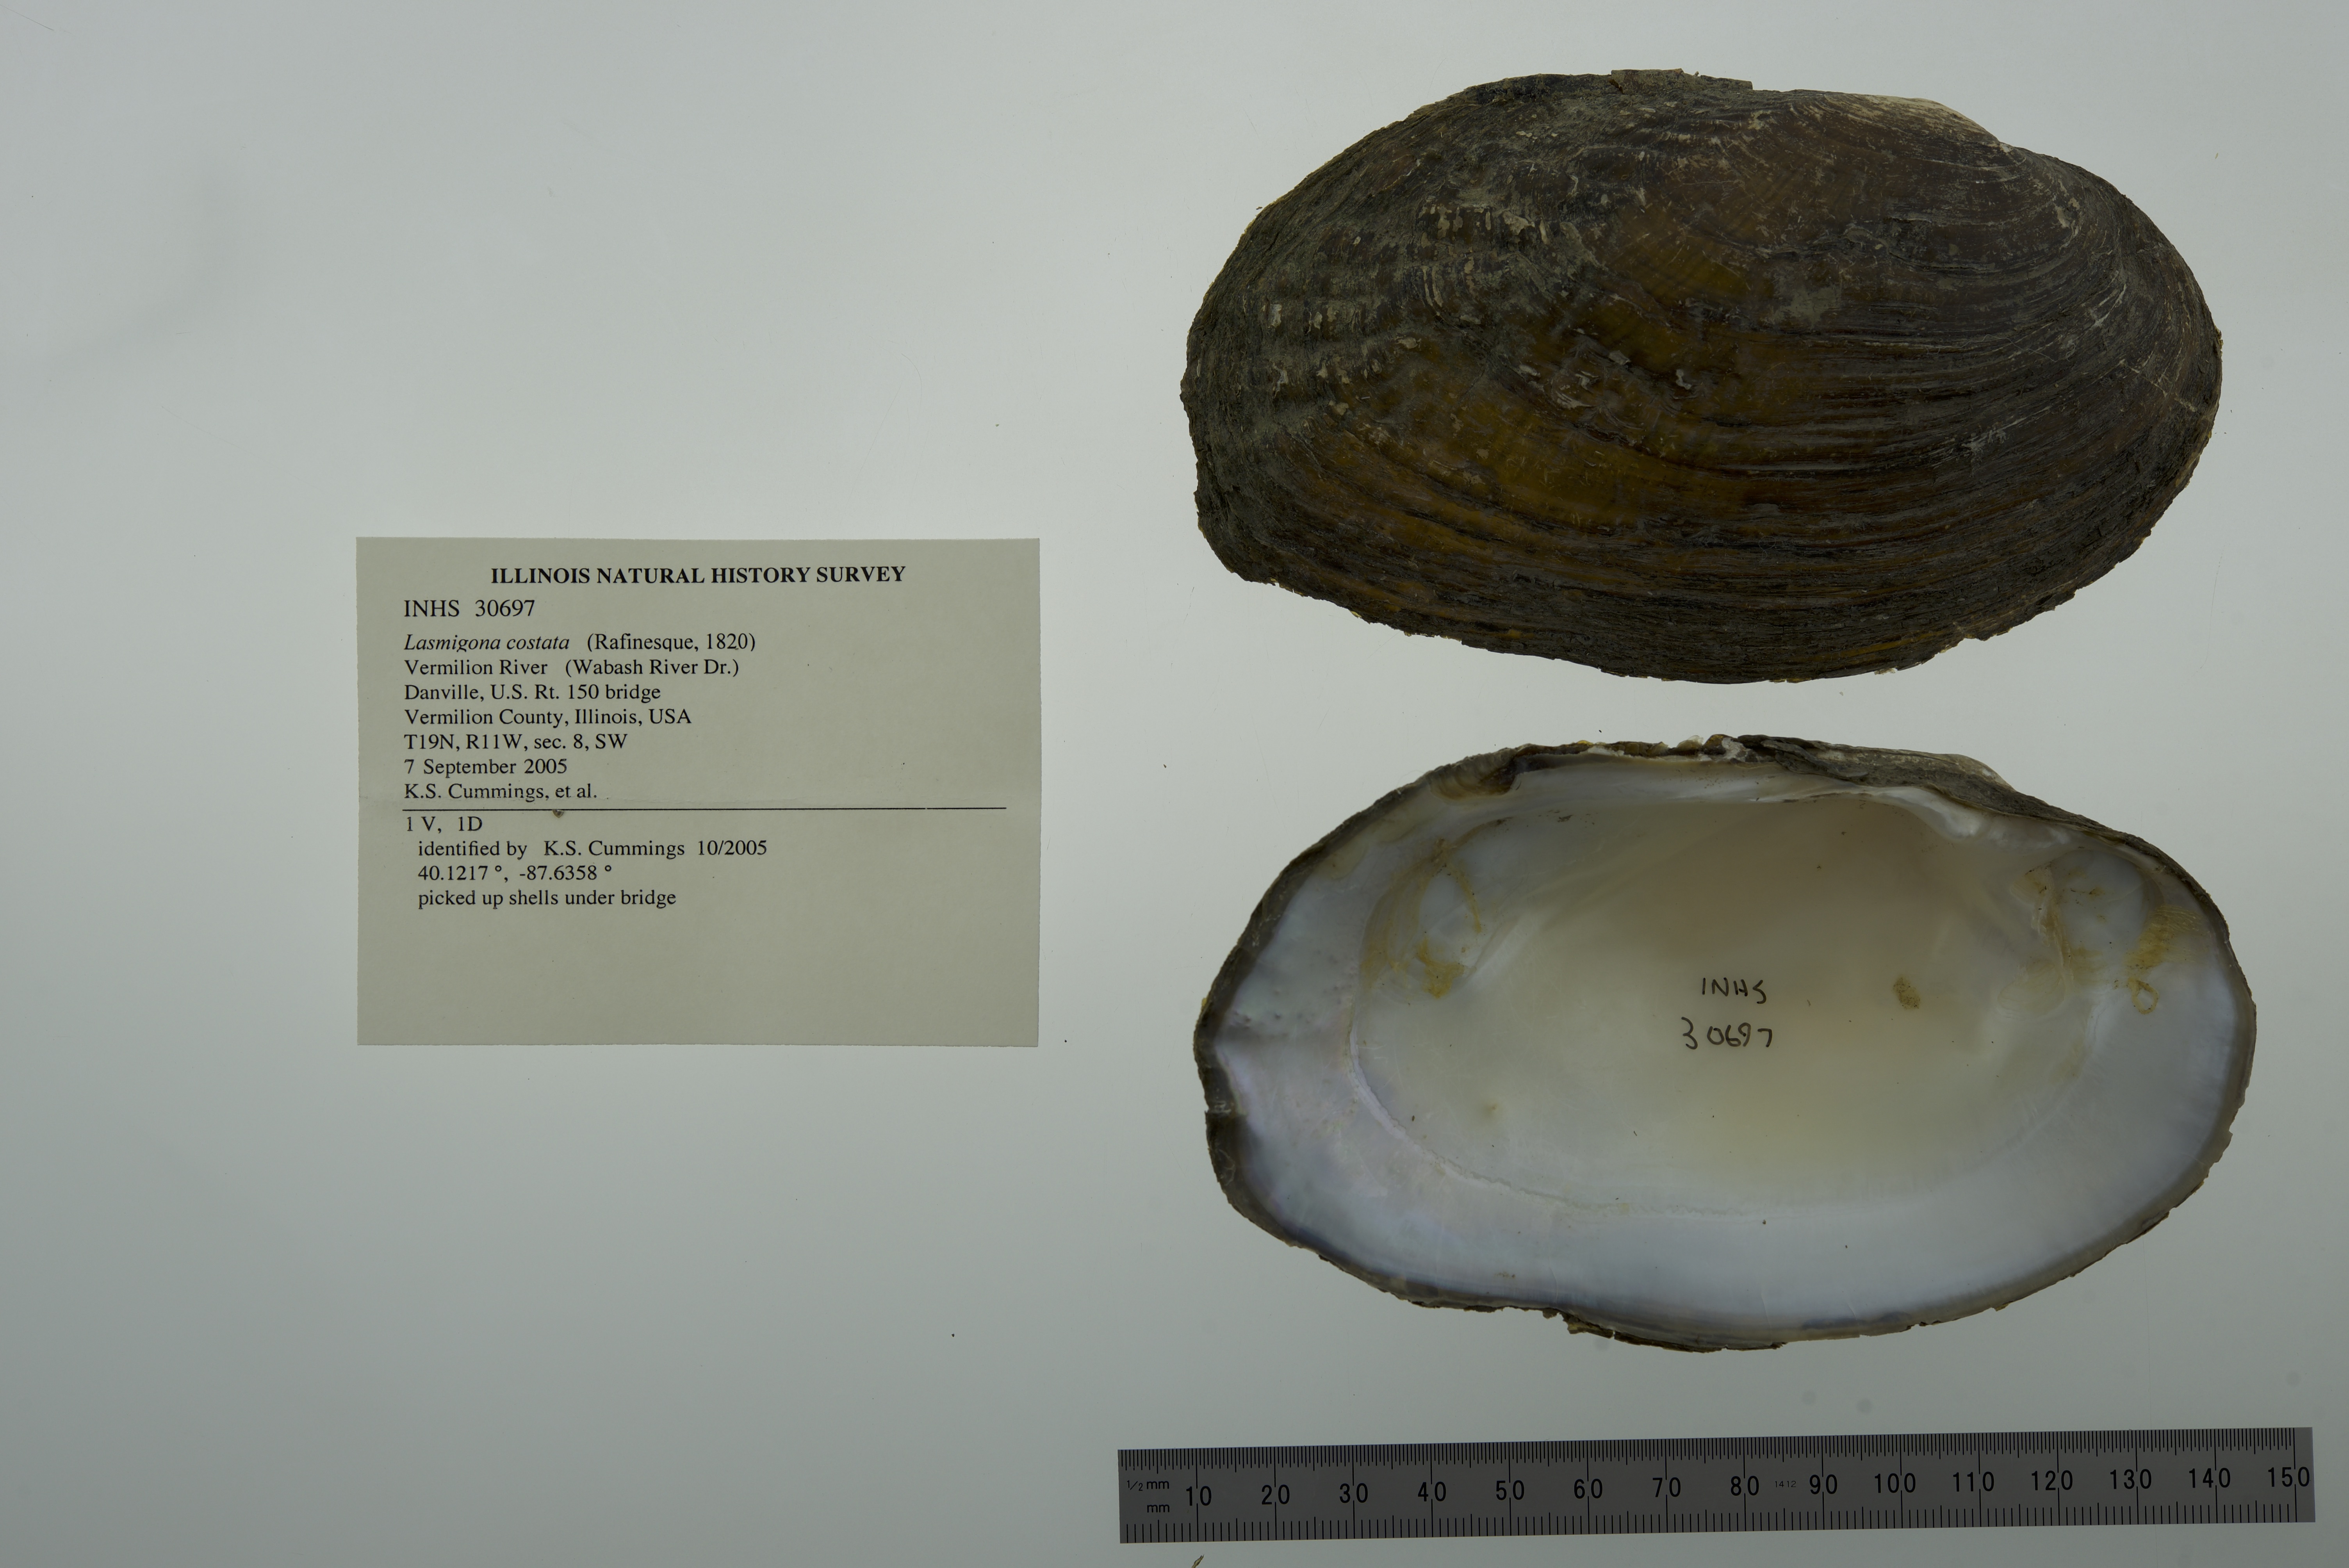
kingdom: Animalia
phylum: Mollusca
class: Bivalvia
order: Unionida
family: Unionidae
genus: Lasmigona
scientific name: Lasmigona costata
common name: Flutedshell
